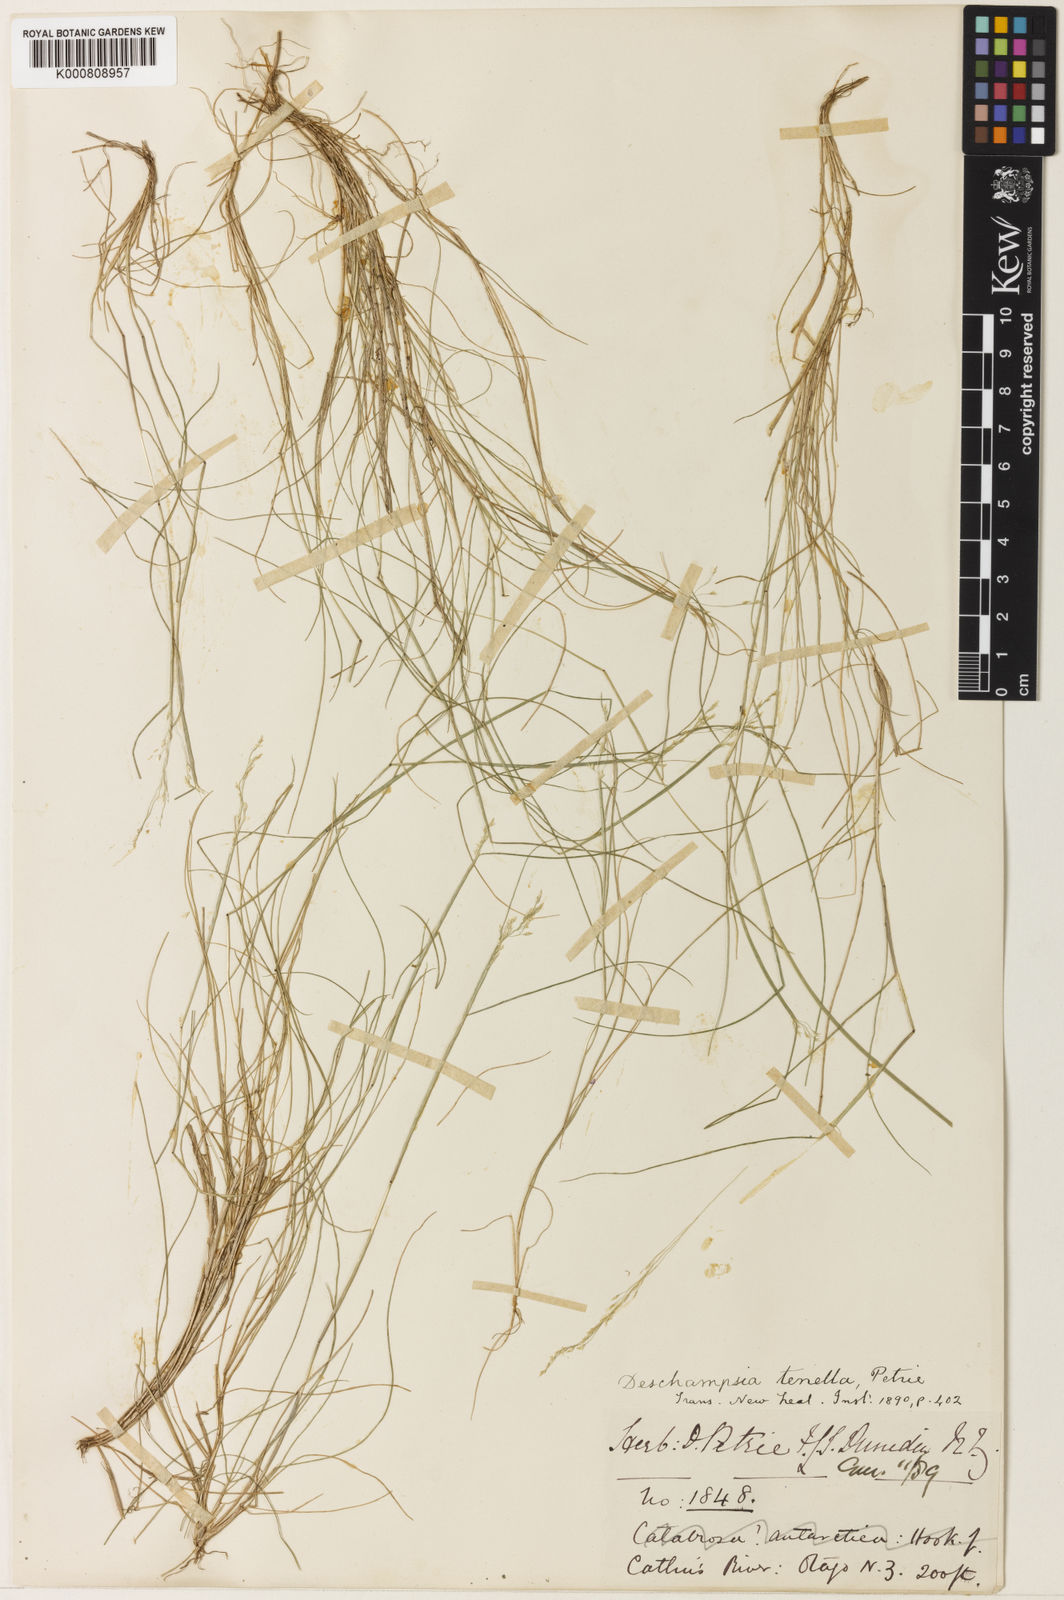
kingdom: Plantae
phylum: Tracheophyta
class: Liliopsida
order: Poales
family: Poaceae
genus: Deschampsia
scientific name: Deschampsia tenella
